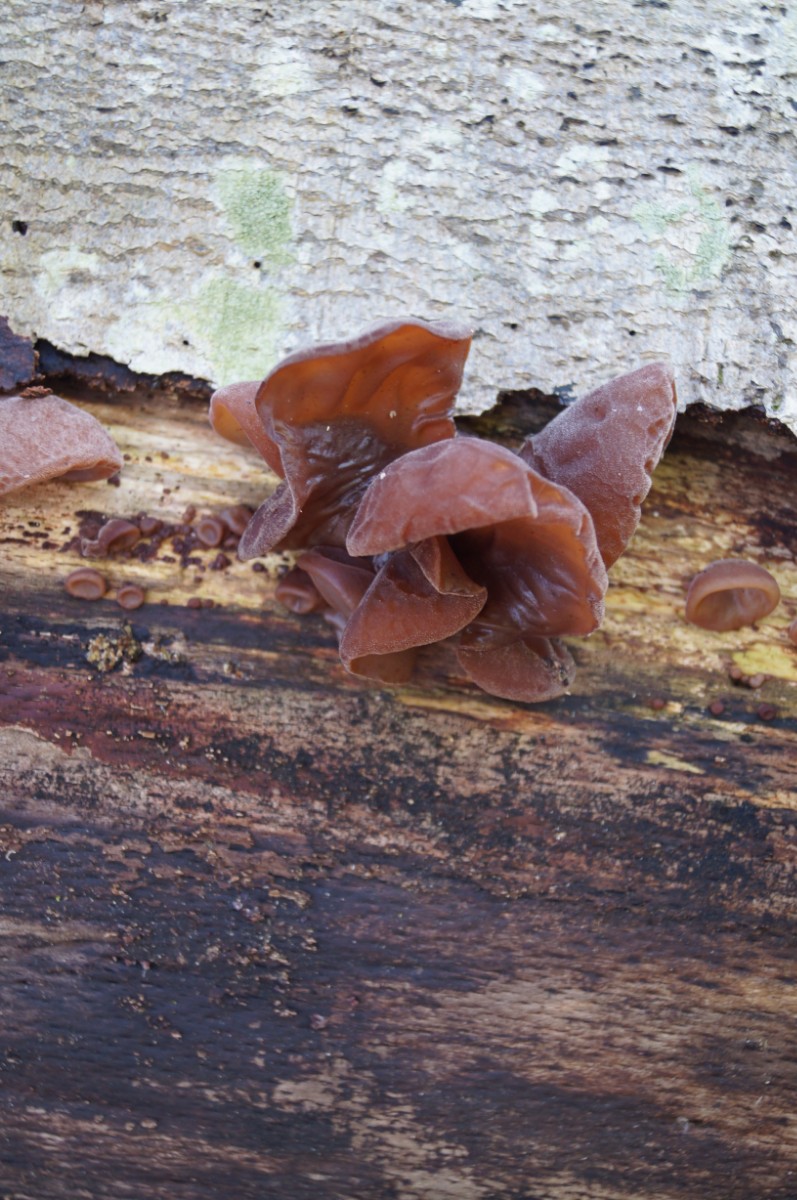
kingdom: Fungi
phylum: Basidiomycota
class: Agaricomycetes
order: Auriculariales
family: Auriculariaceae
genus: Auricularia
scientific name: Auricularia auricula-judae
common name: almindelig judasøre
